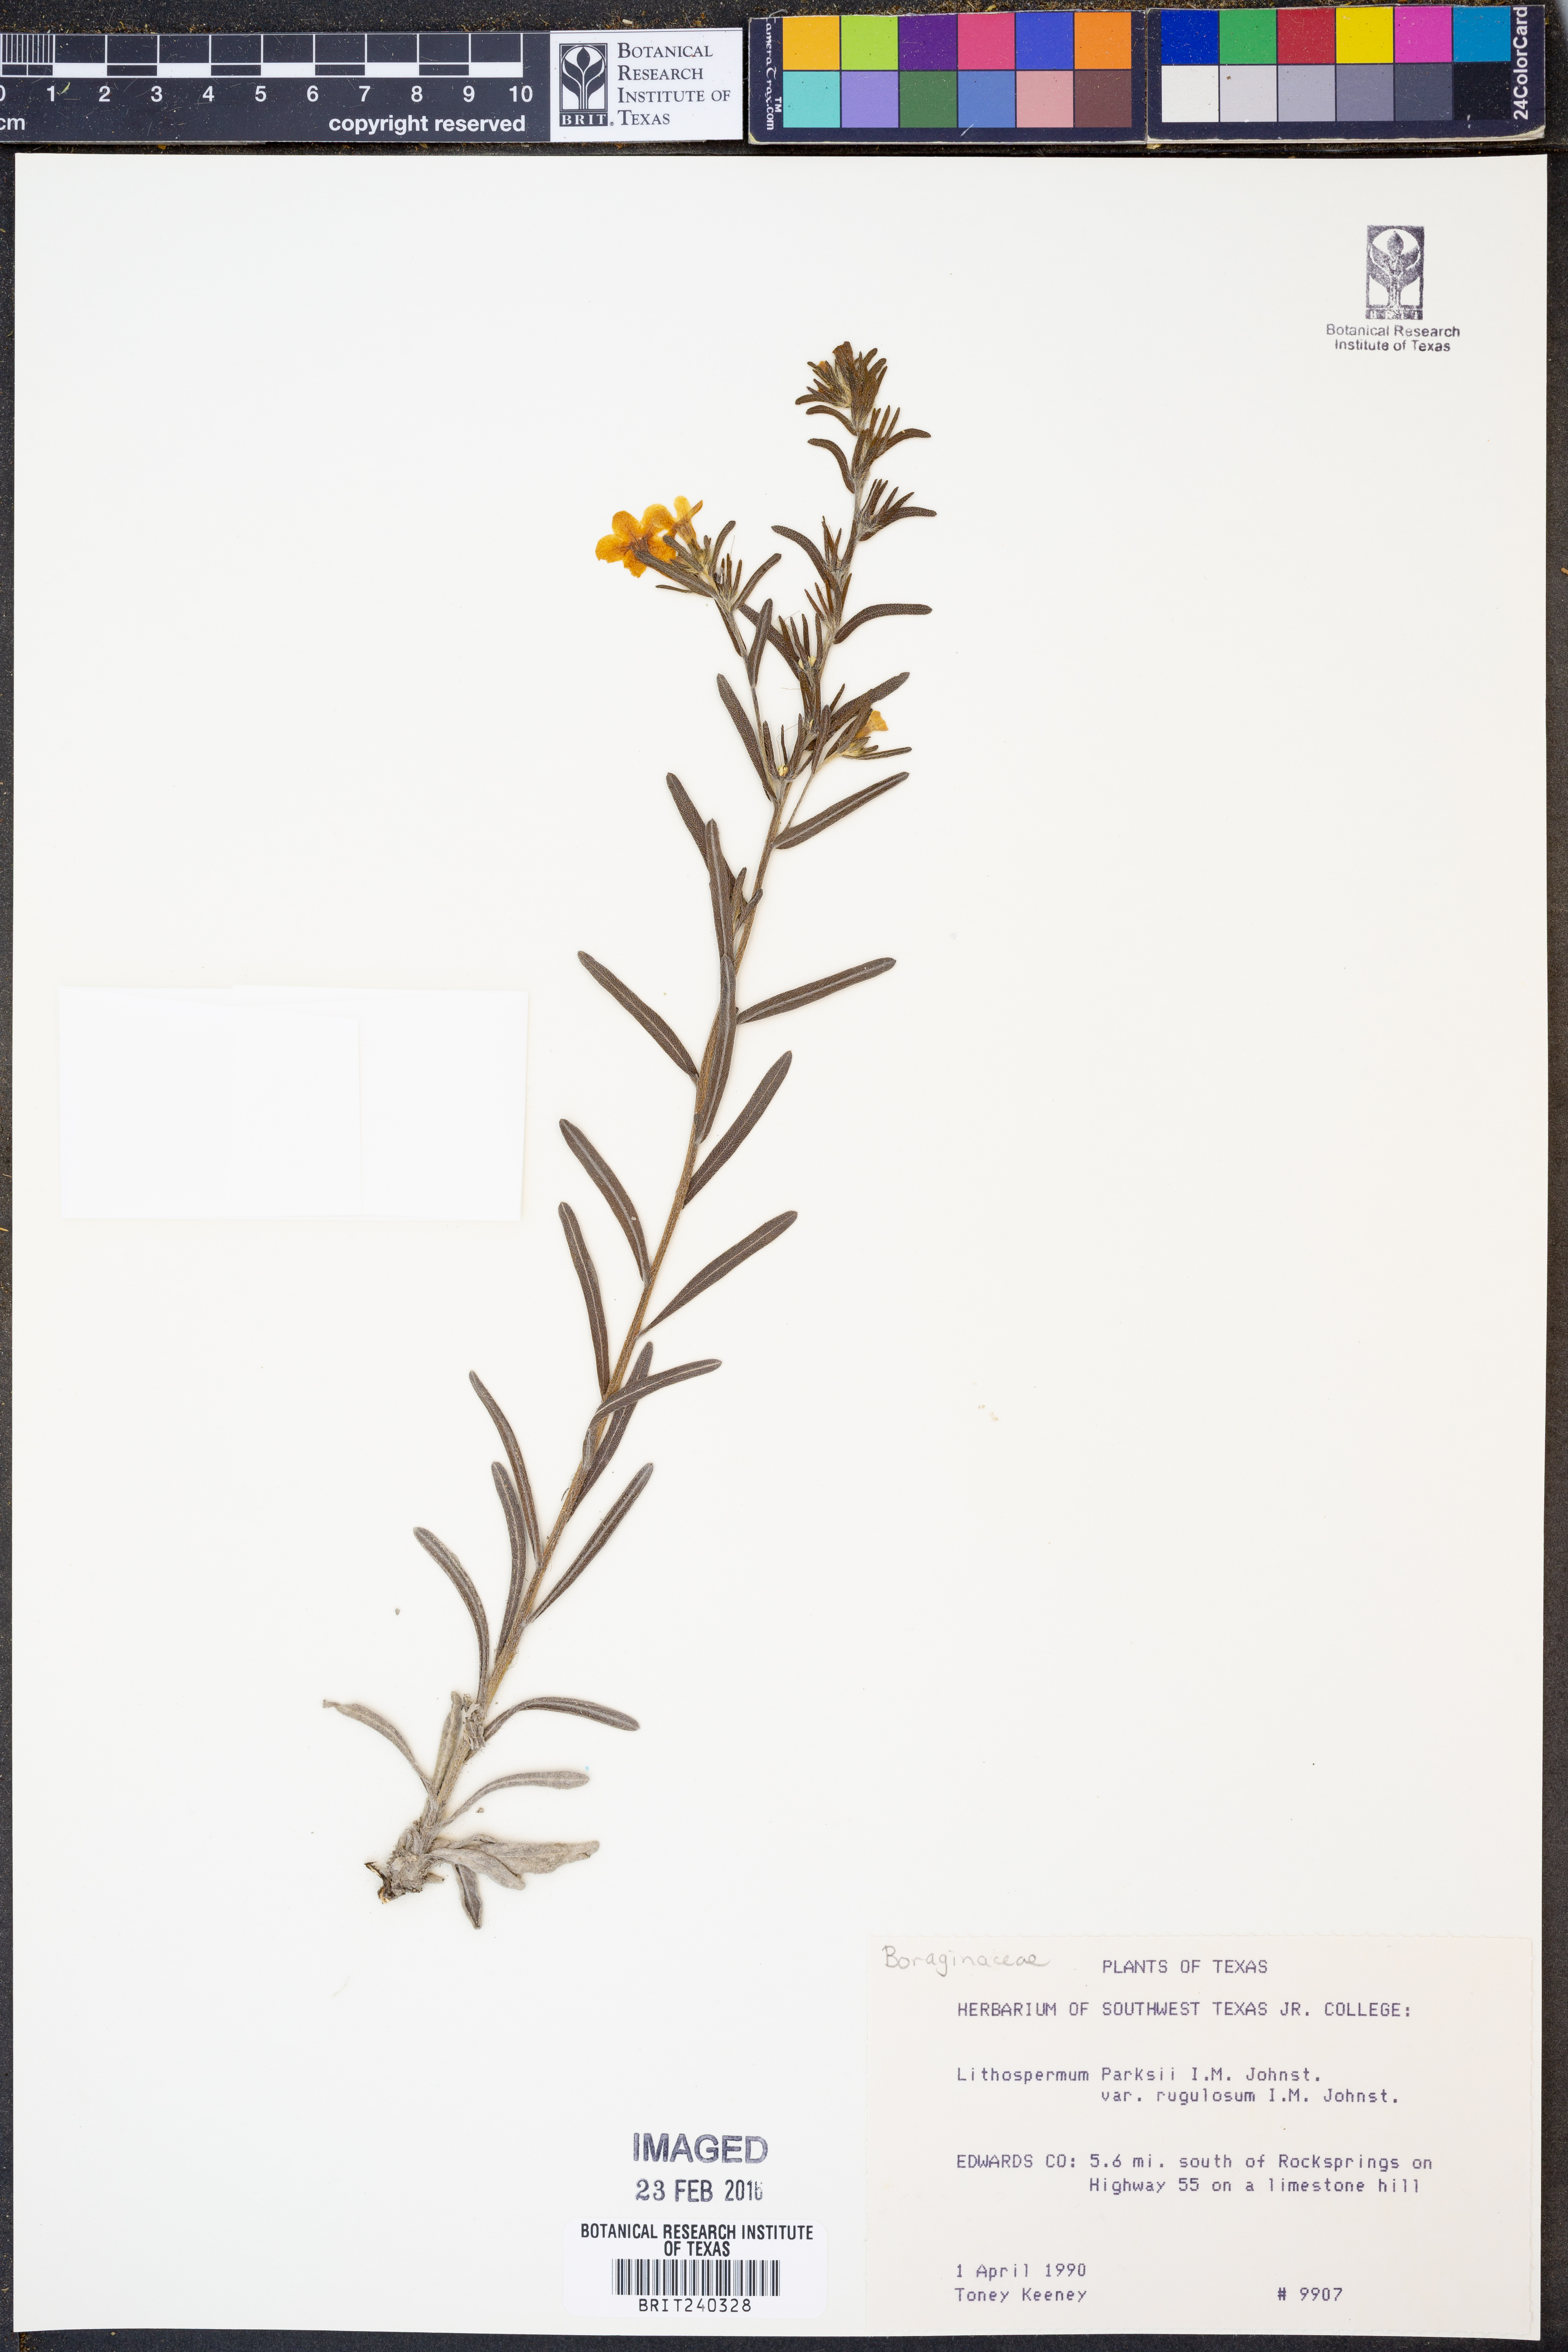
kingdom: Plantae
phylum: Tracheophyta
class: Magnoliopsida
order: Boraginales
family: Boraginaceae
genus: Lithospermum
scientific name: Lithospermum parksii
